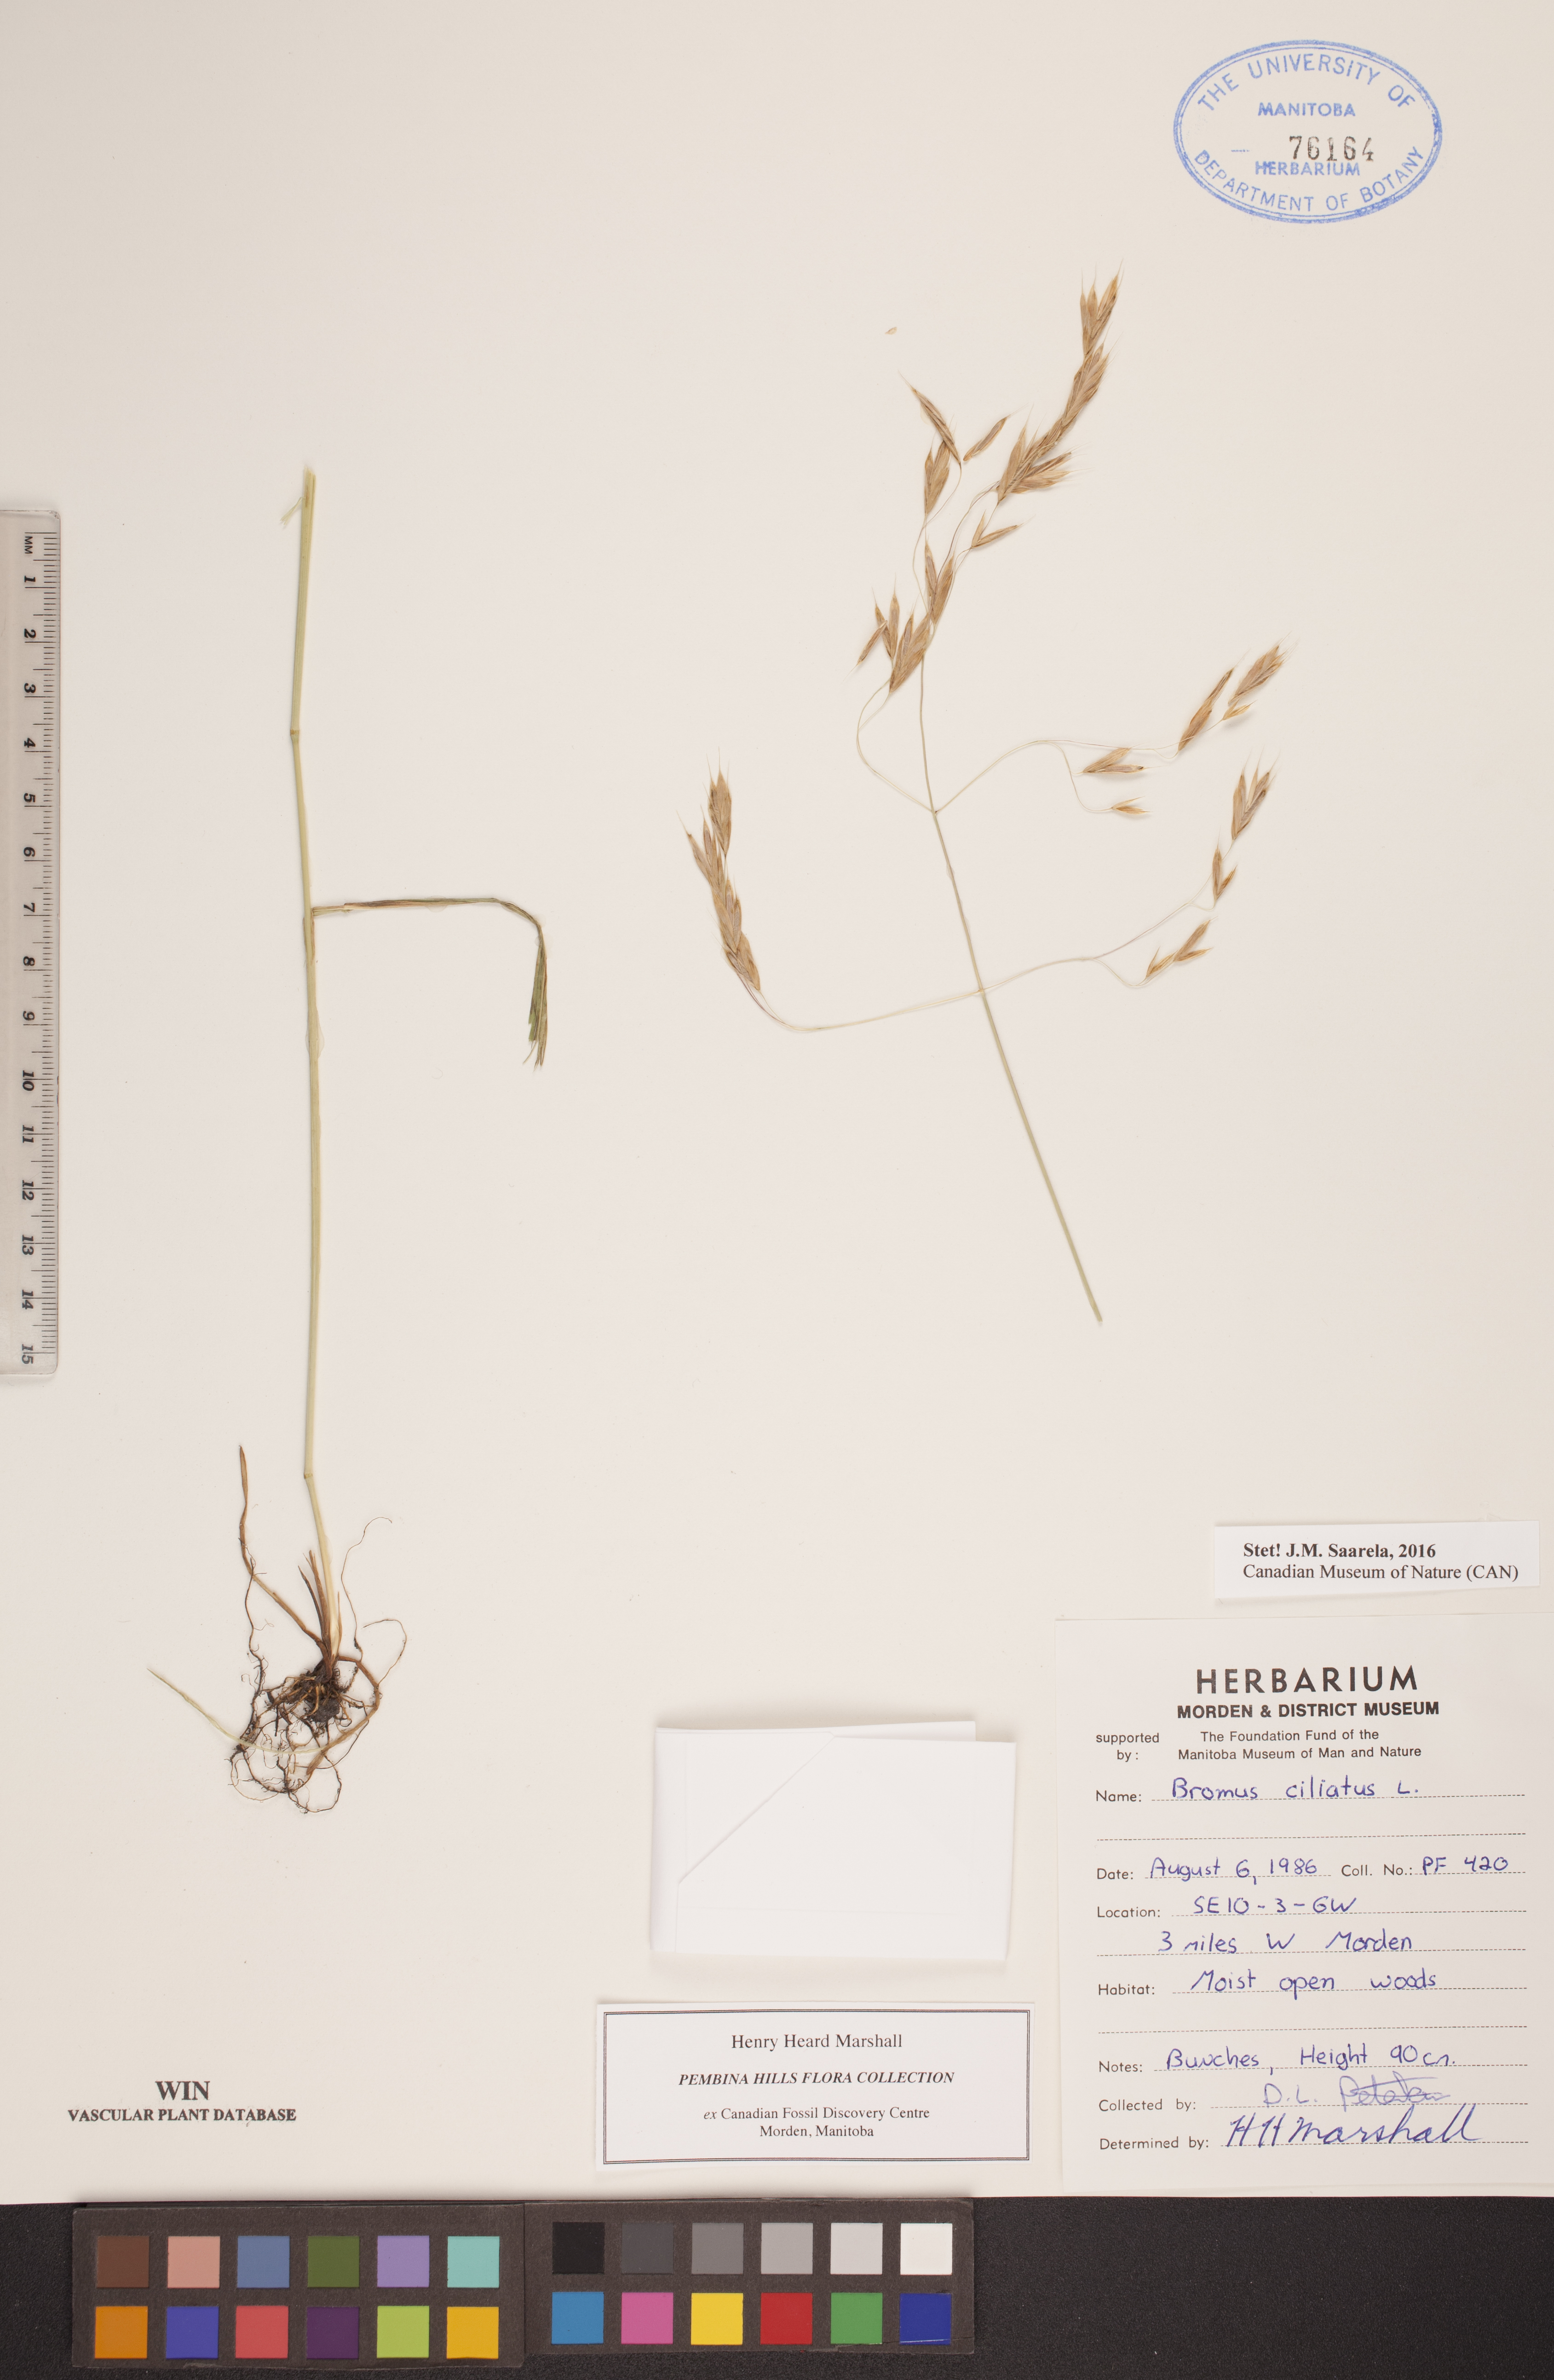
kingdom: Plantae
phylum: Tracheophyta
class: Liliopsida
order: Poales
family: Poaceae
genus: Bromus
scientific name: Bromus ciliatus
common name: Fringe brome
